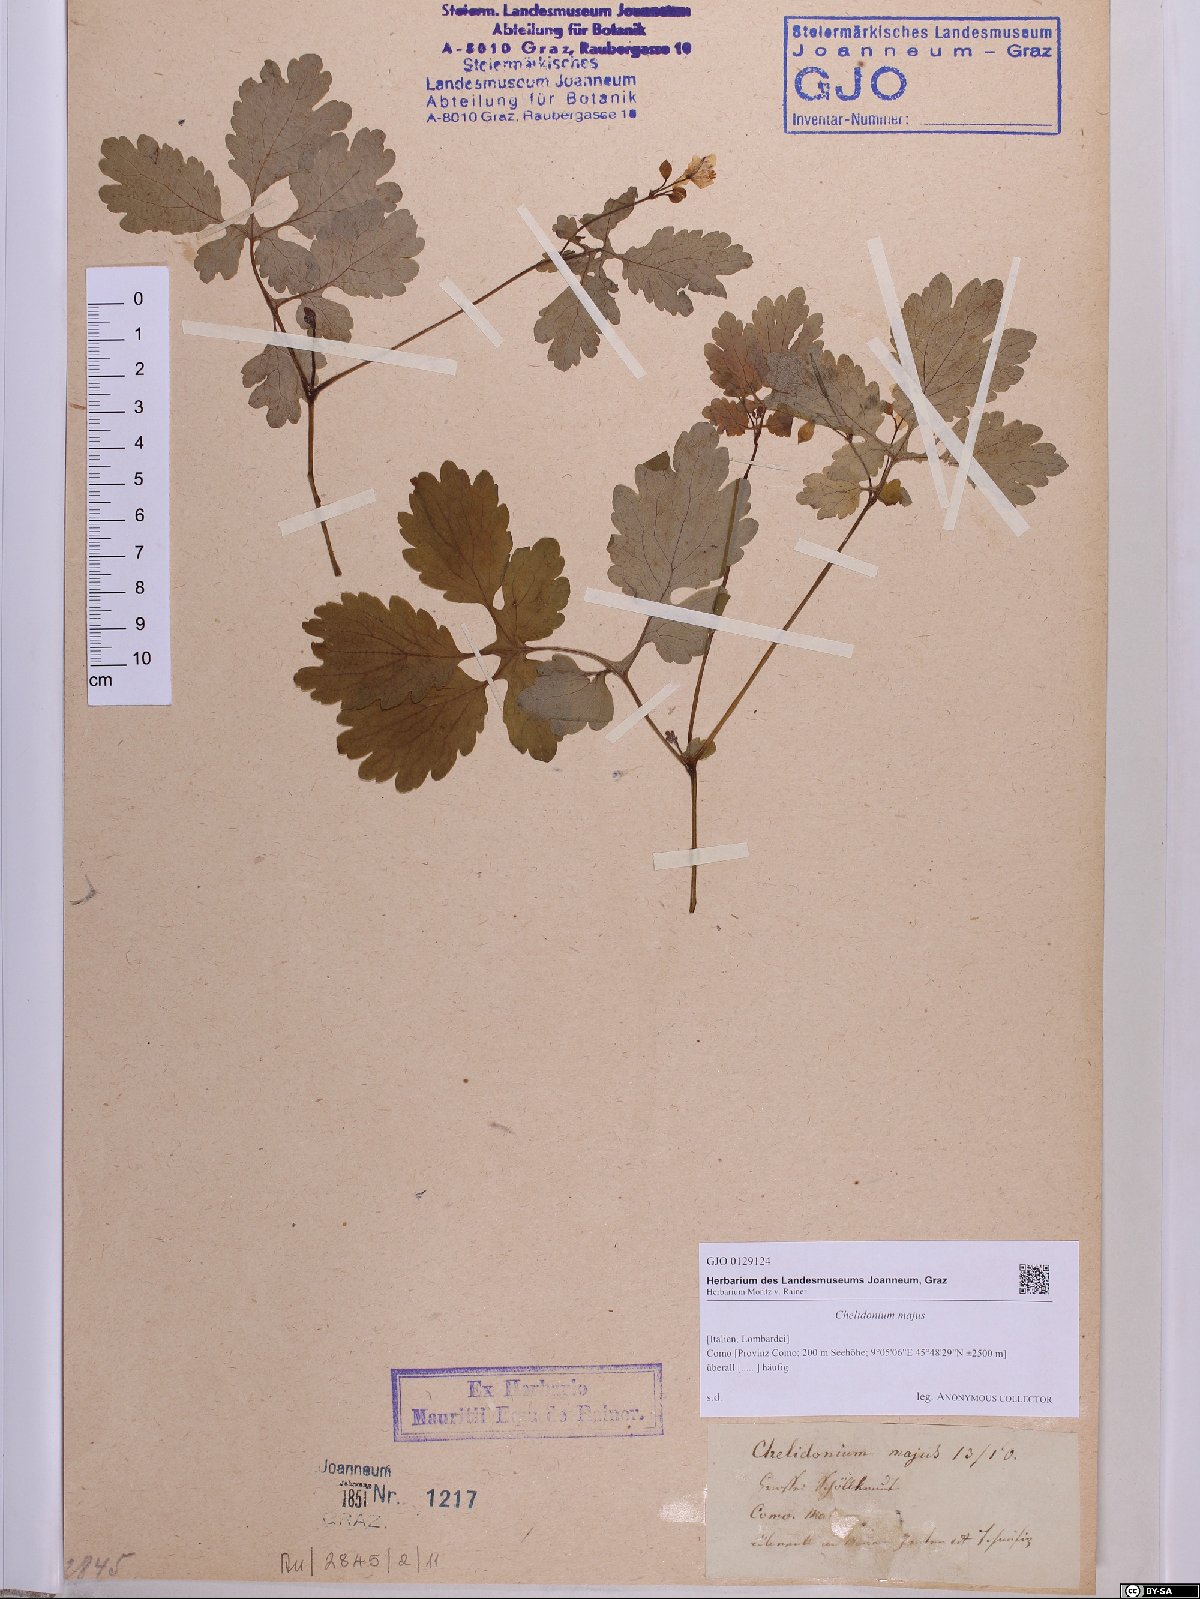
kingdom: Plantae
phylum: Tracheophyta
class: Magnoliopsida
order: Ranunculales
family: Papaveraceae
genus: Chelidonium
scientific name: Chelidonium majus
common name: Greater celandine
